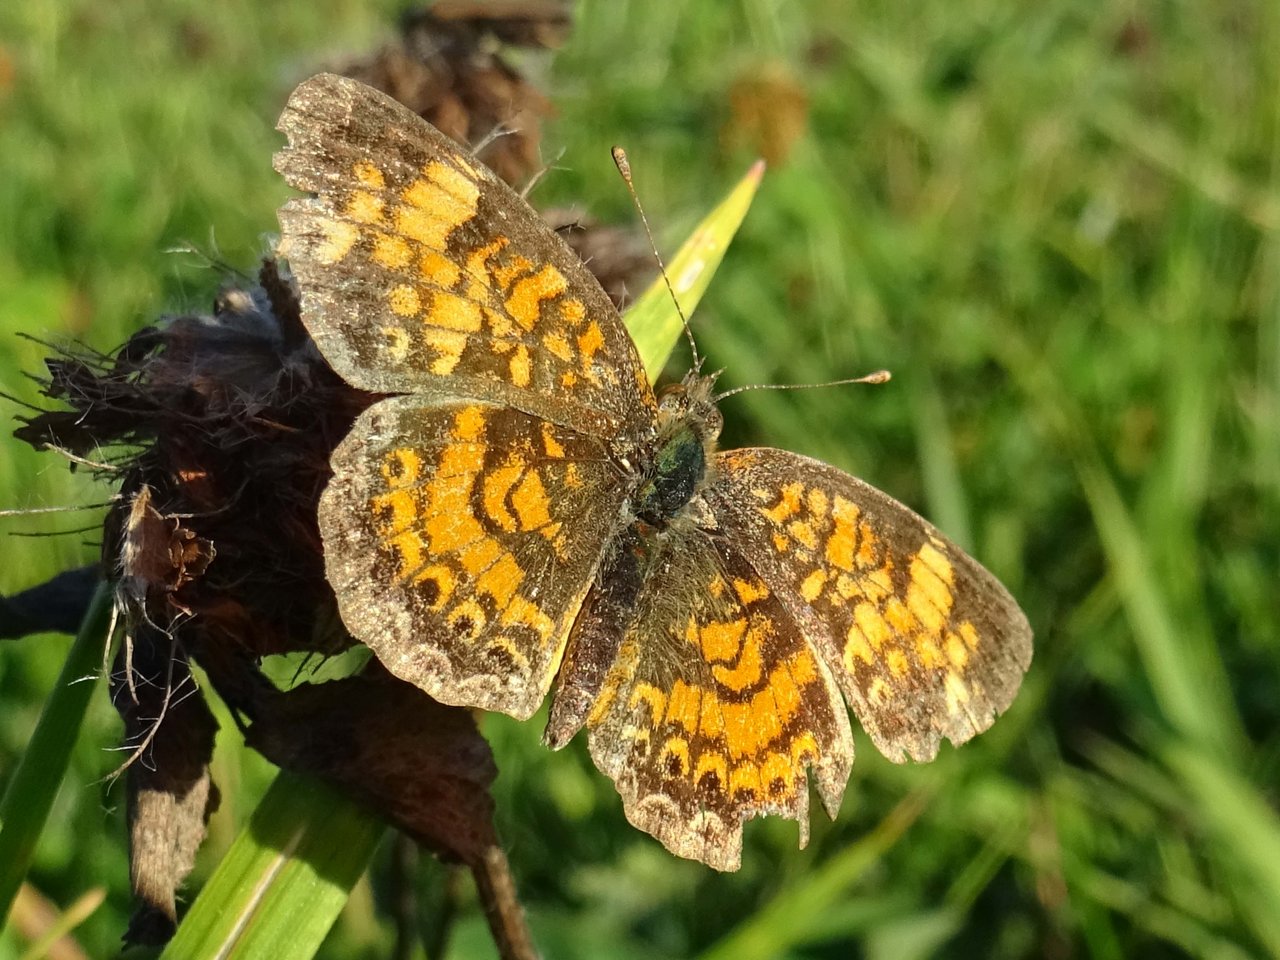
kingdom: Animalia
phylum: Arthropoda
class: Insecta
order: Lepidoptera
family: Nymphalidae
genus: Phyciodes
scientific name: Phyciodes tharos
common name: Pearl Crescent
